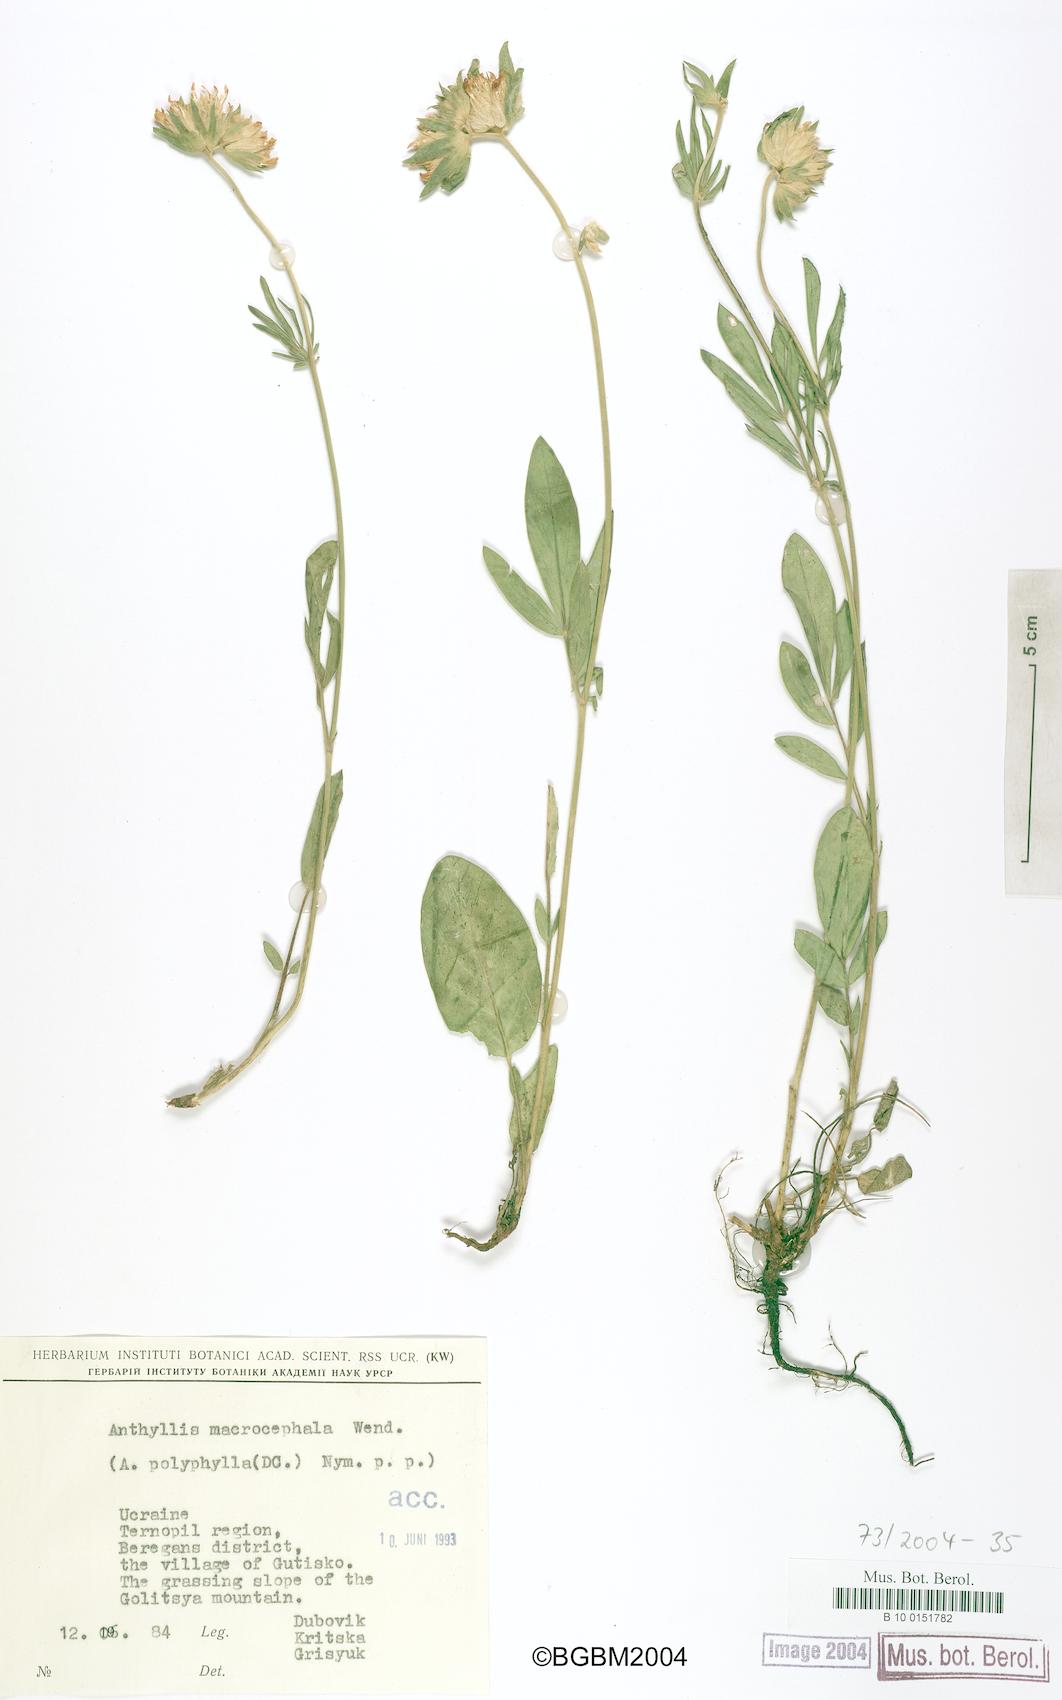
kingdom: Plantae
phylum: Tracheophyta
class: Magnoliopsida
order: Fabales
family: Fabaceae
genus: Anthyllis
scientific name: Anthyllis vulneraria
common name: Kidney vetch
